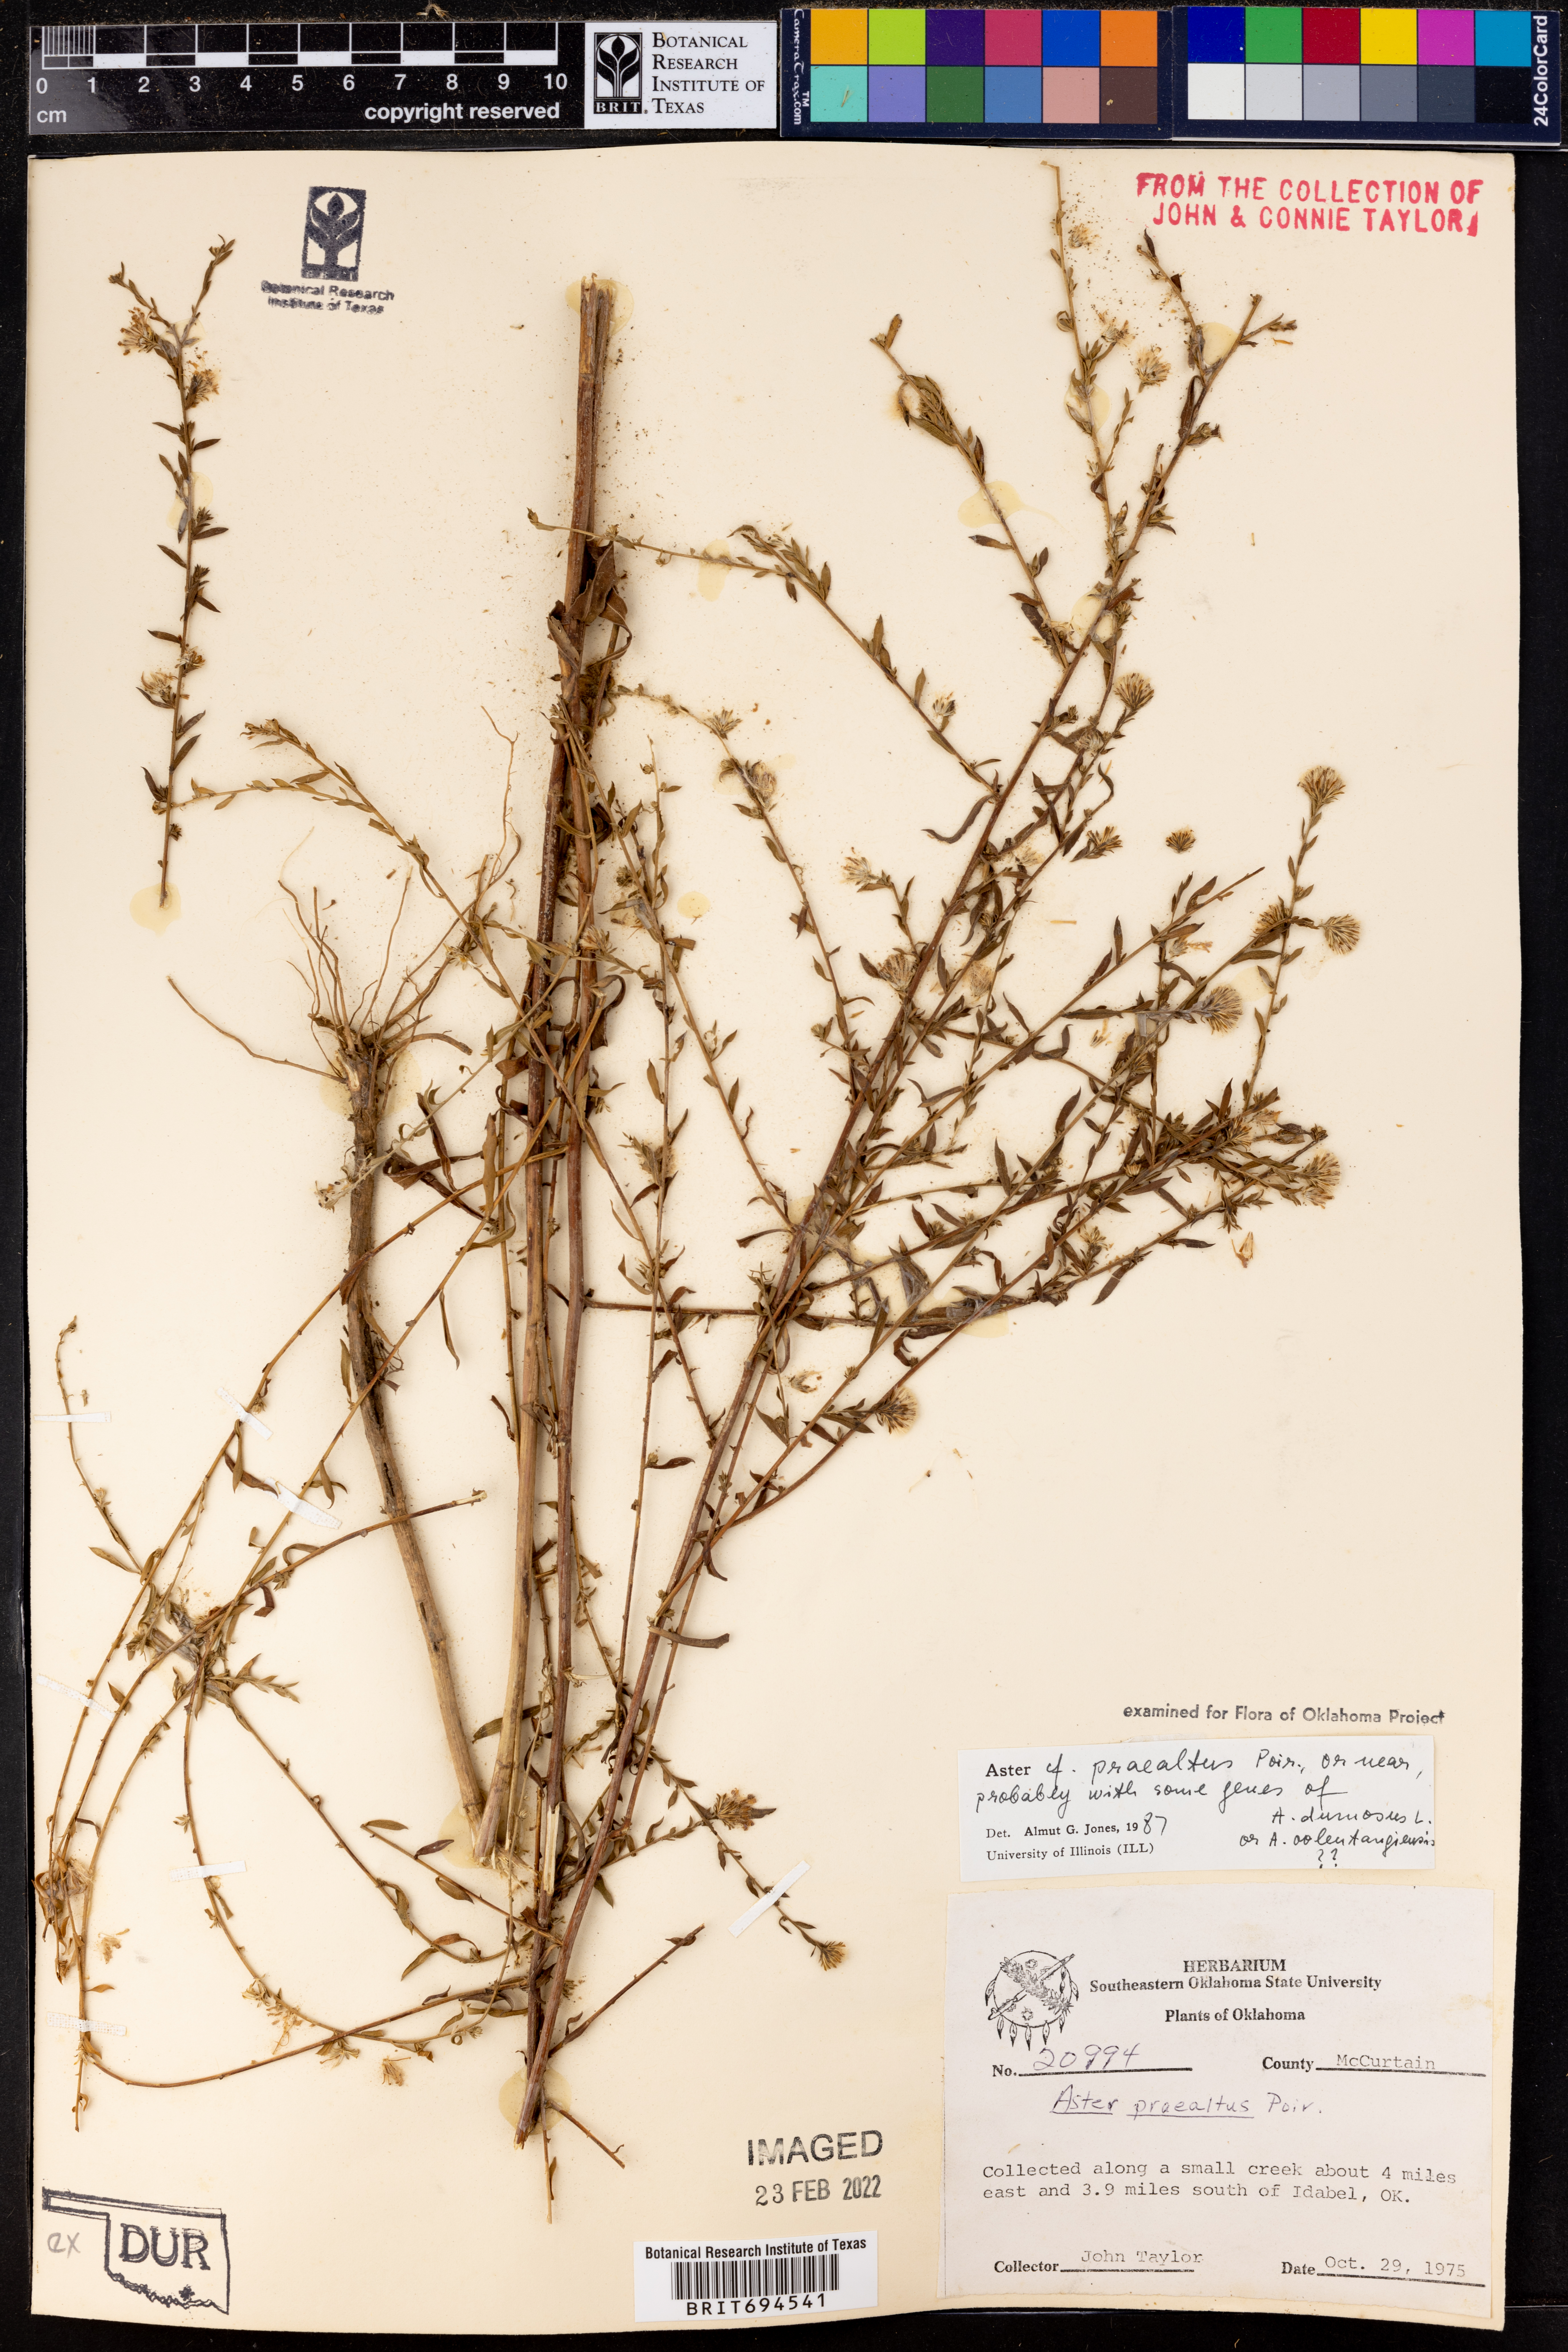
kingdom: Plantae
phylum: Tracheophyta
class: Magnoliopsida
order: Asterales
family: Asteraceae
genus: Symphyotrichum
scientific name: Symphyotrichum praealtum
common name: Willow aster
